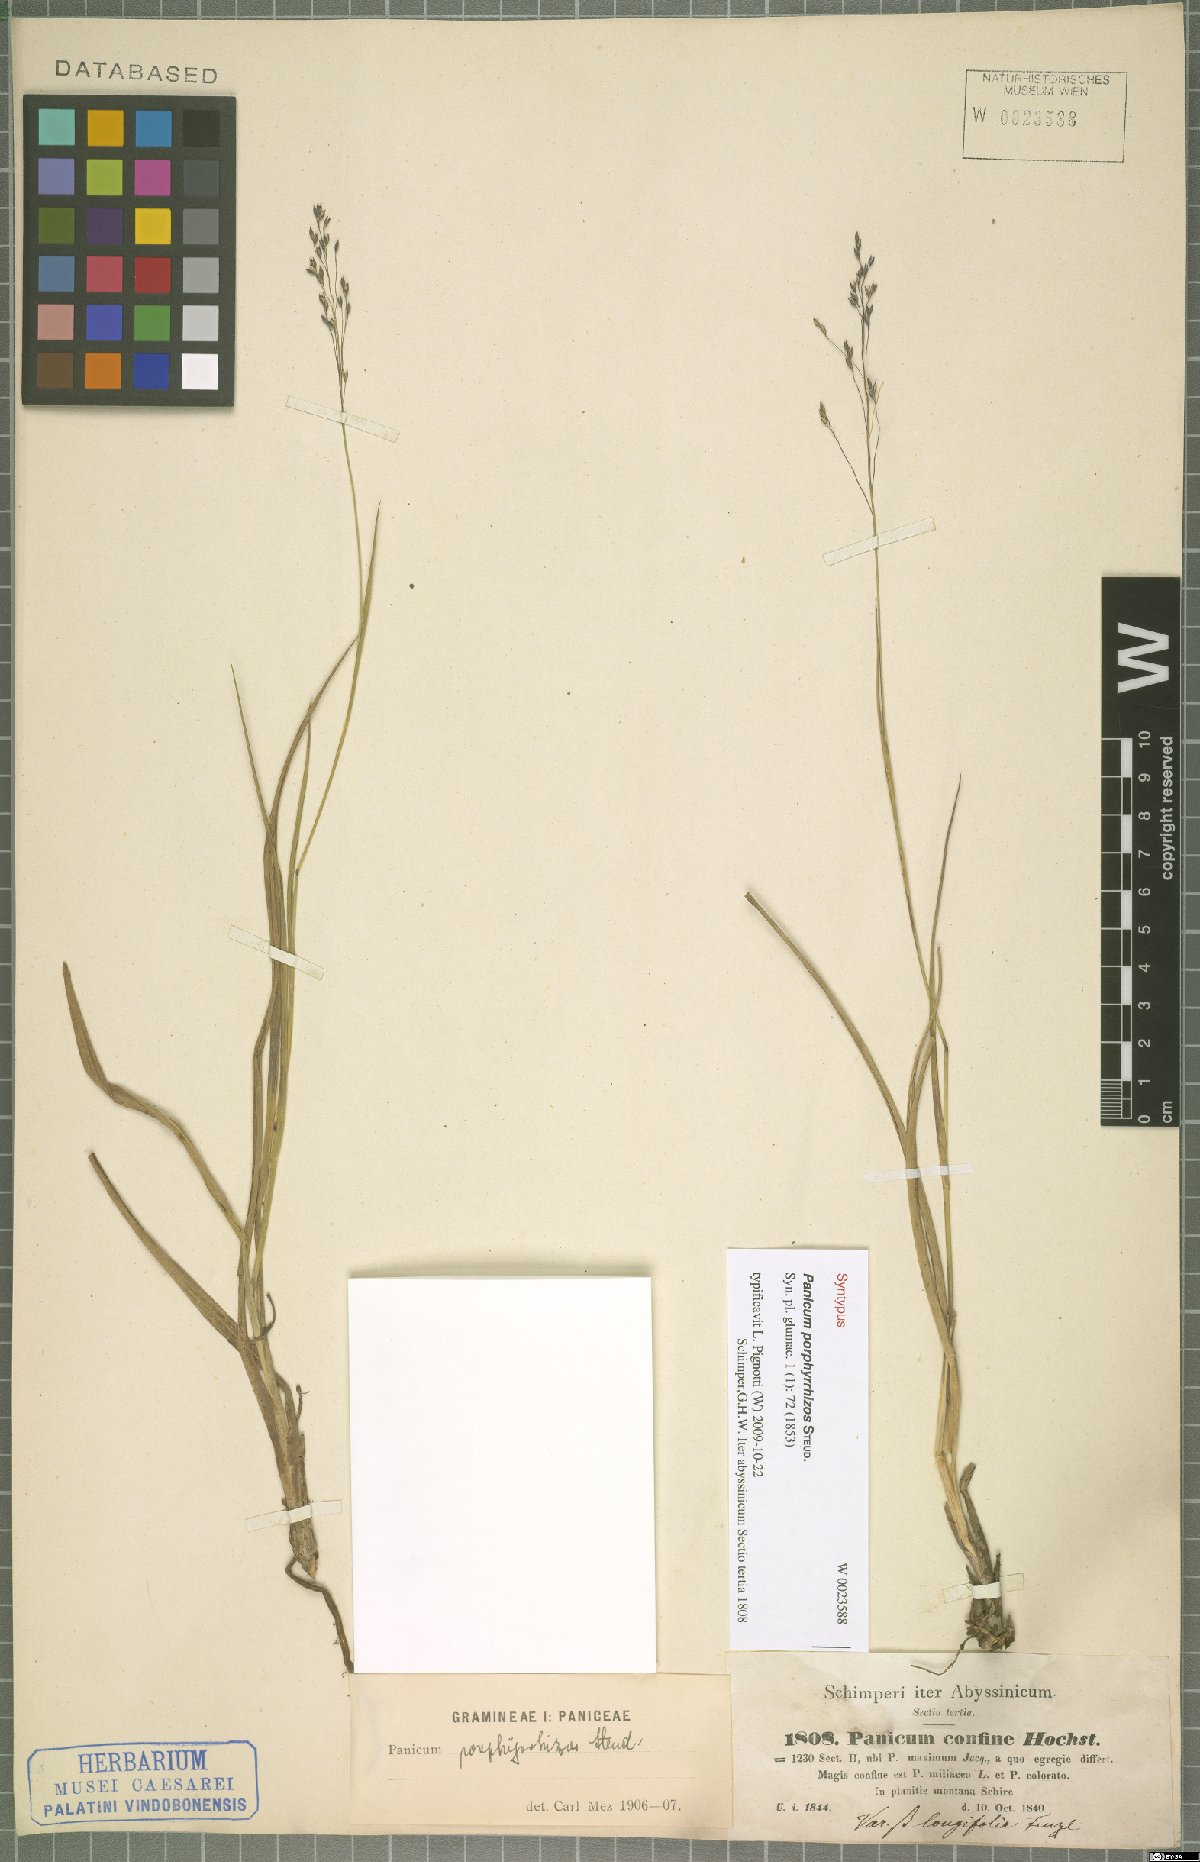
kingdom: Plantae
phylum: Tracheophyta
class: Liliopsida
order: Poales
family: Poaceae
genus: Panicum
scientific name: Panicum porphyrrhizos
